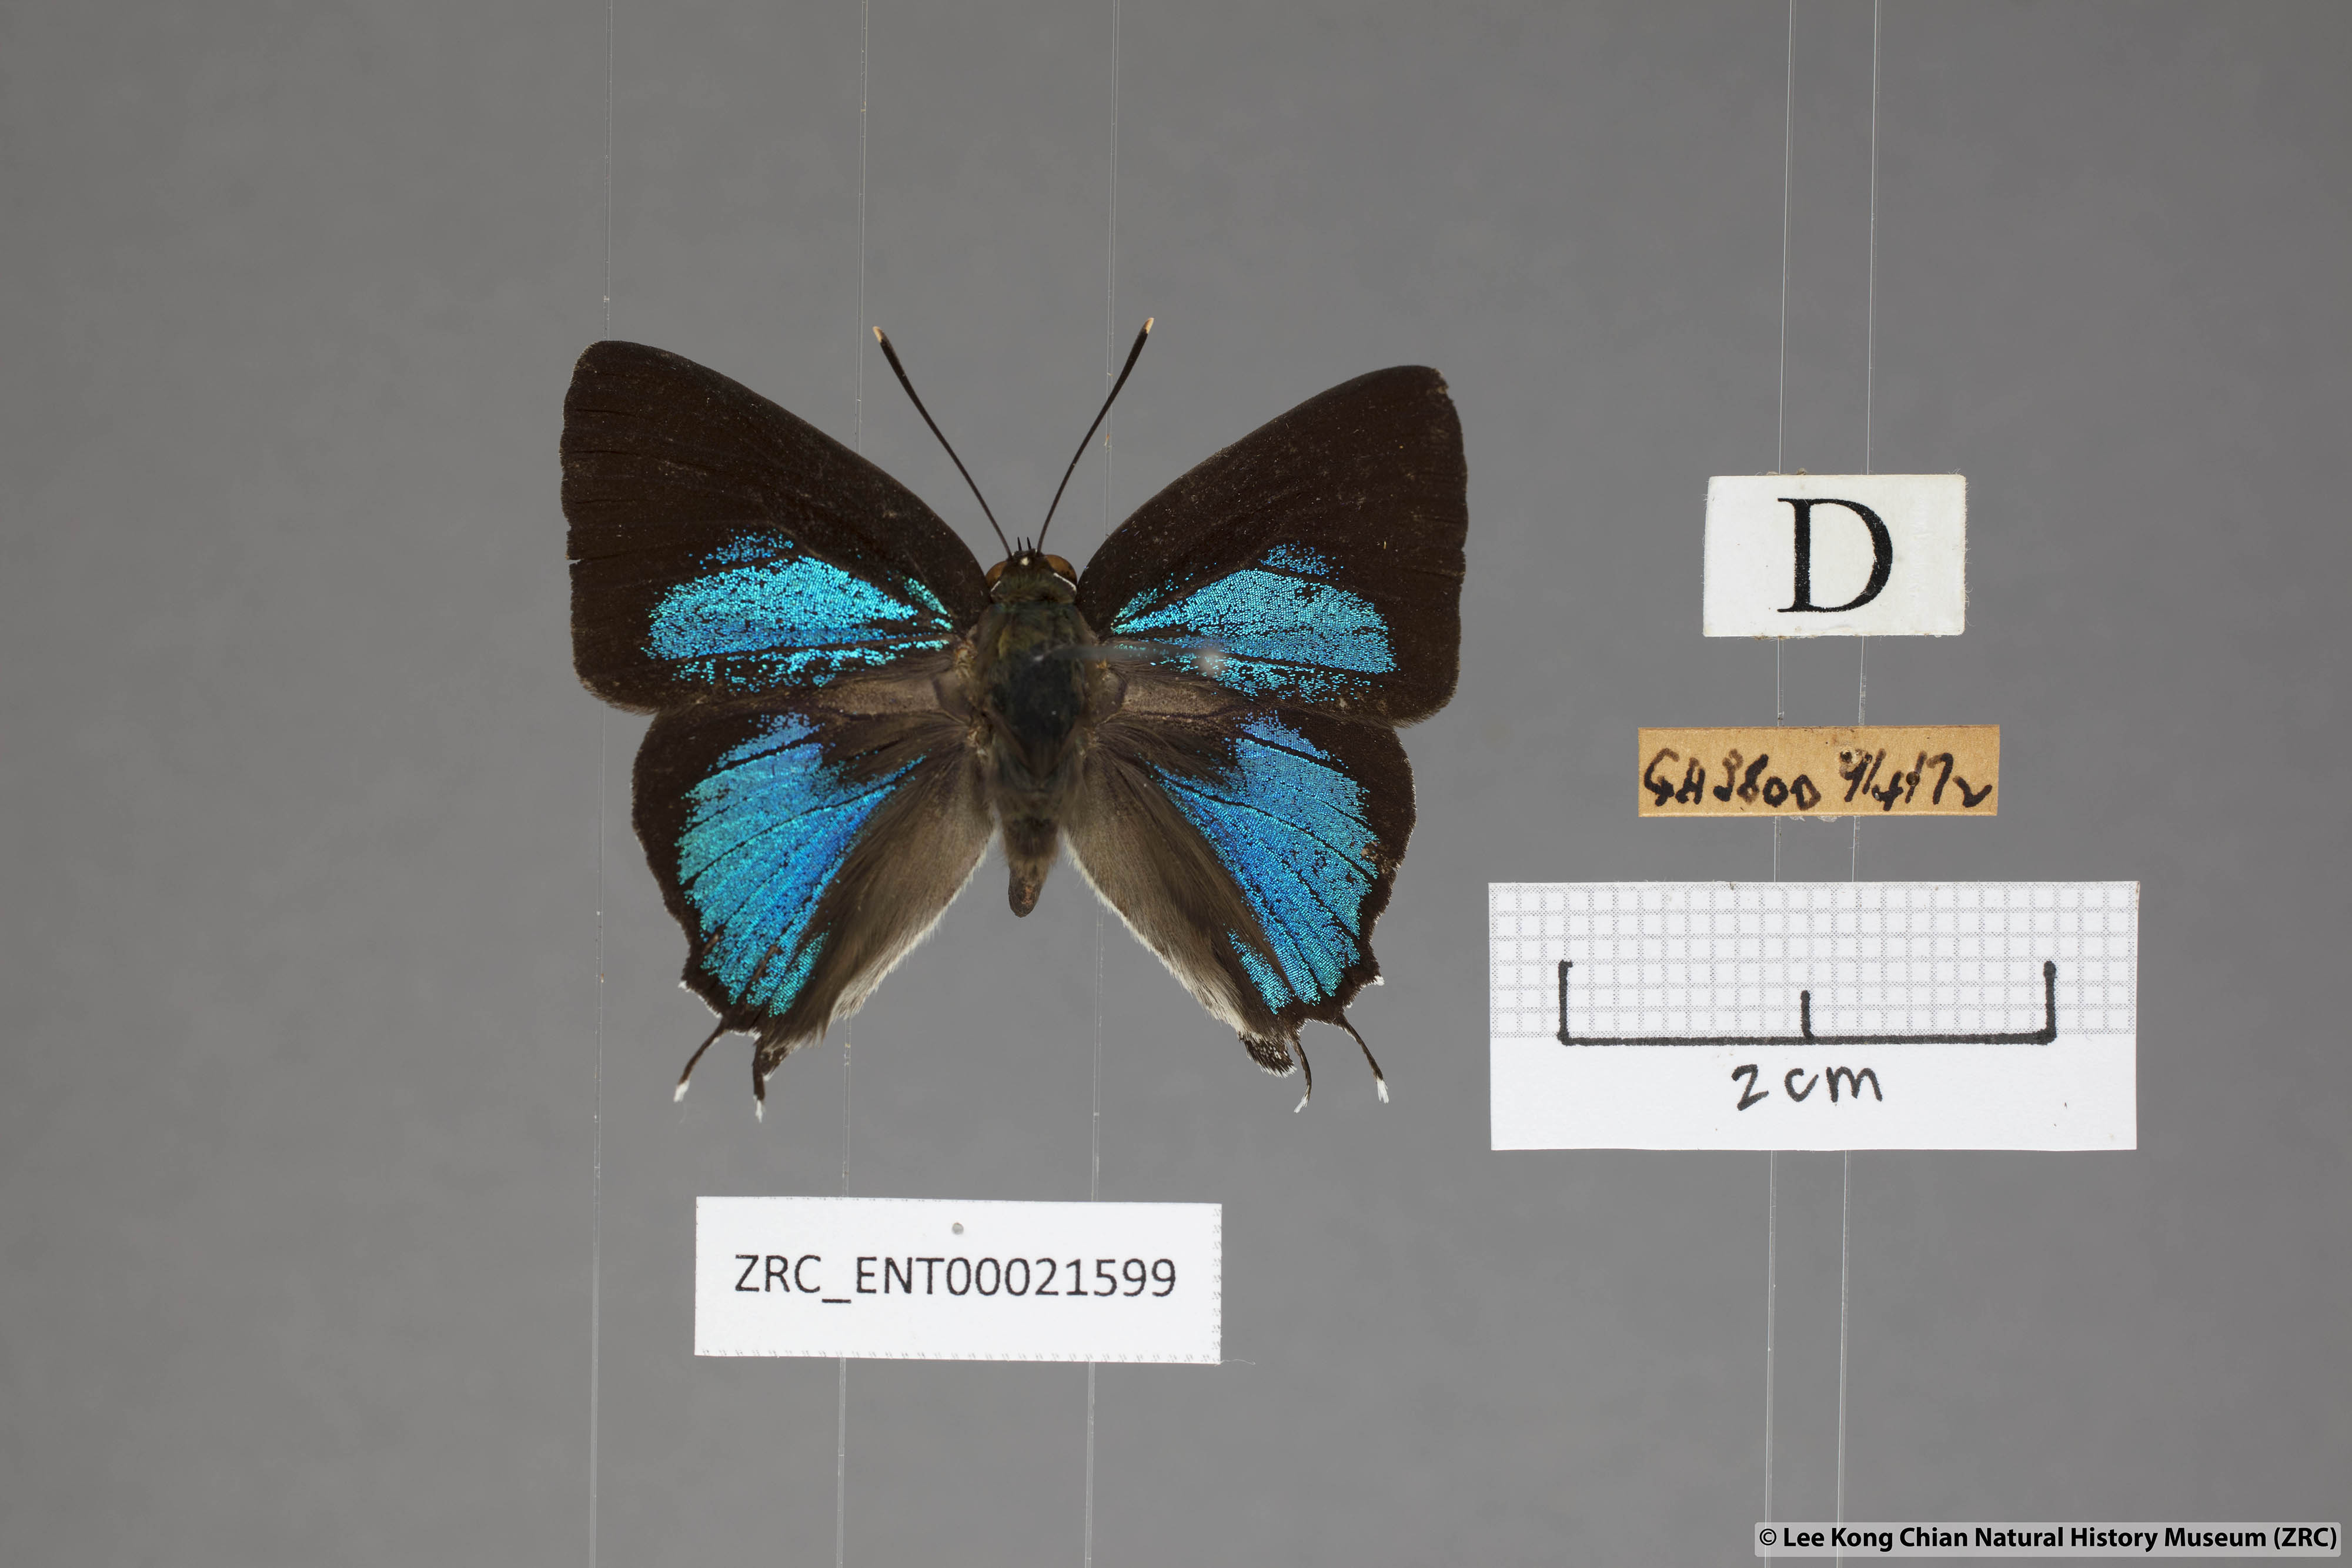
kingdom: Animalia
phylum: Arthropoda
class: Insecta
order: Lepidoptera
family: Lycaenidae
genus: Iraota
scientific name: Iraota rochana
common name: Scarce silverstreak blue
